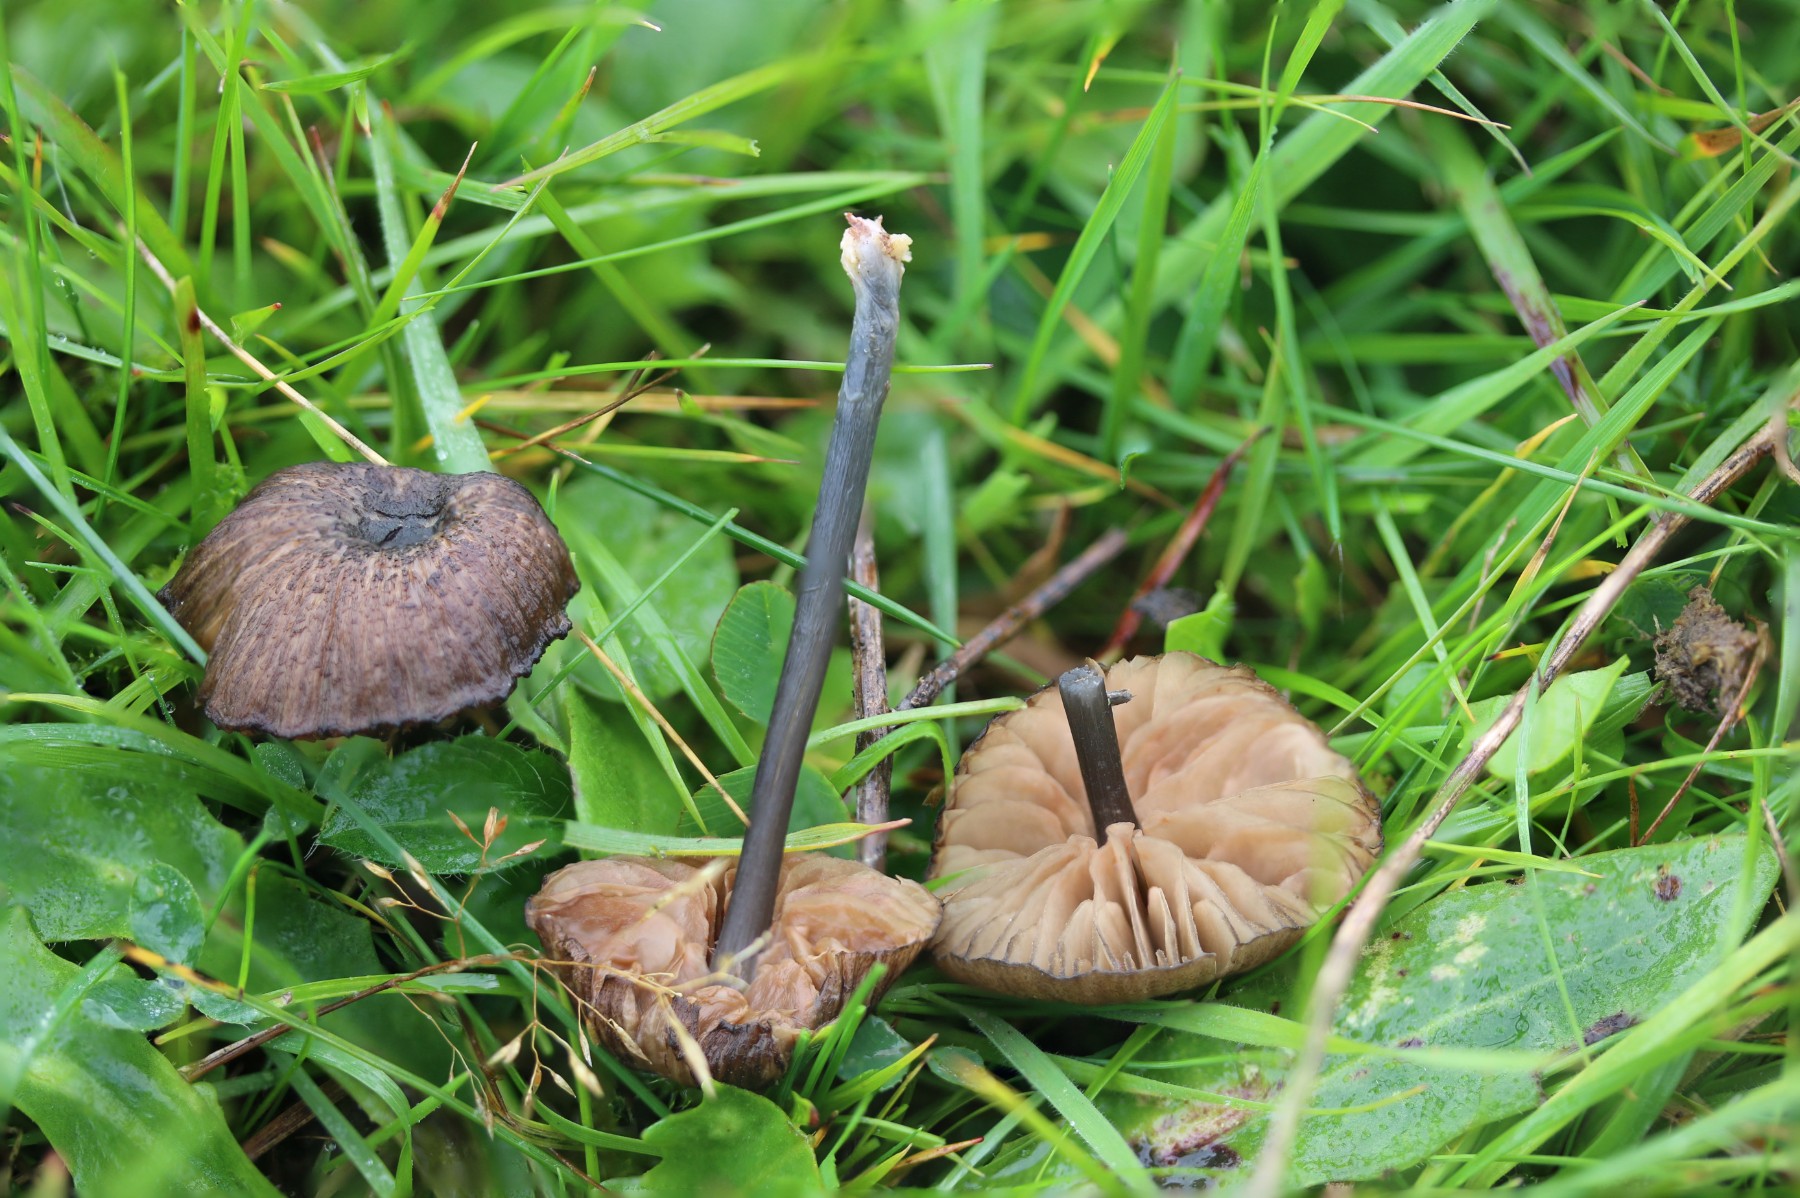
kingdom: Fungi
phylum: Basidiomycota
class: Agaricomycetes
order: Agaricales
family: Entolomataceae
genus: Entoloma
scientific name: Entoloma
